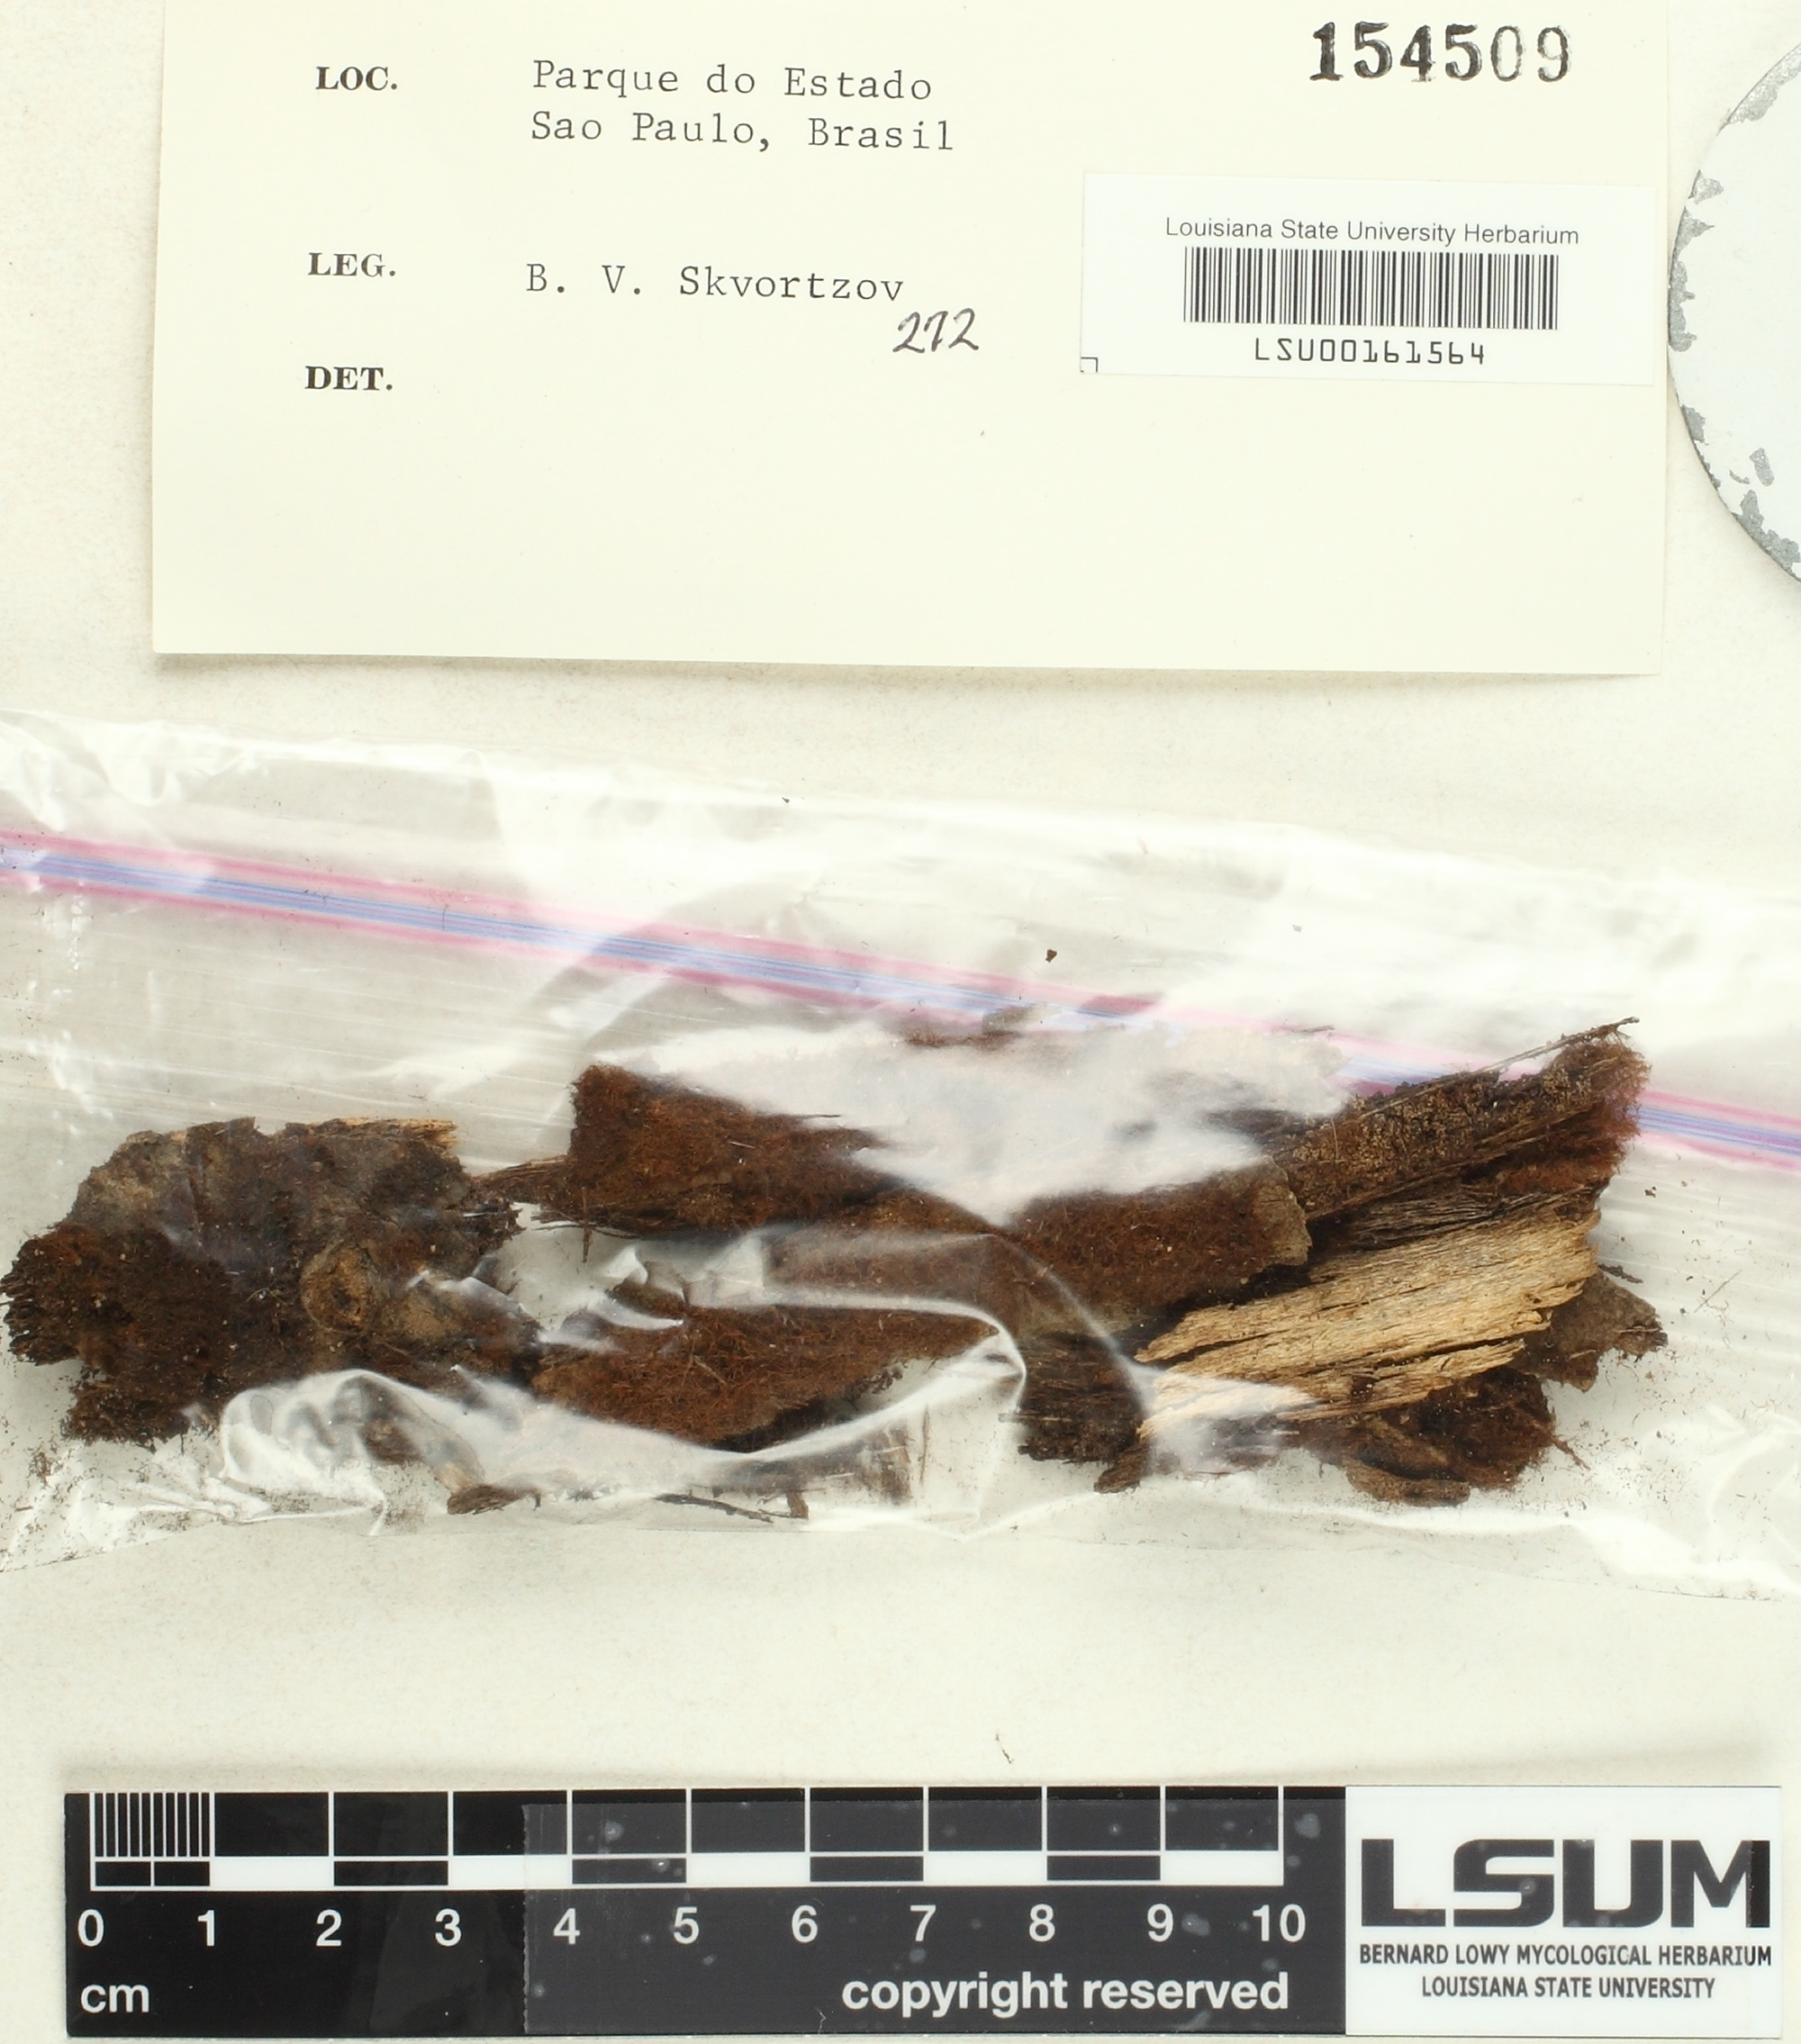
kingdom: Fungi
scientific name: Fungi
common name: Fungi
